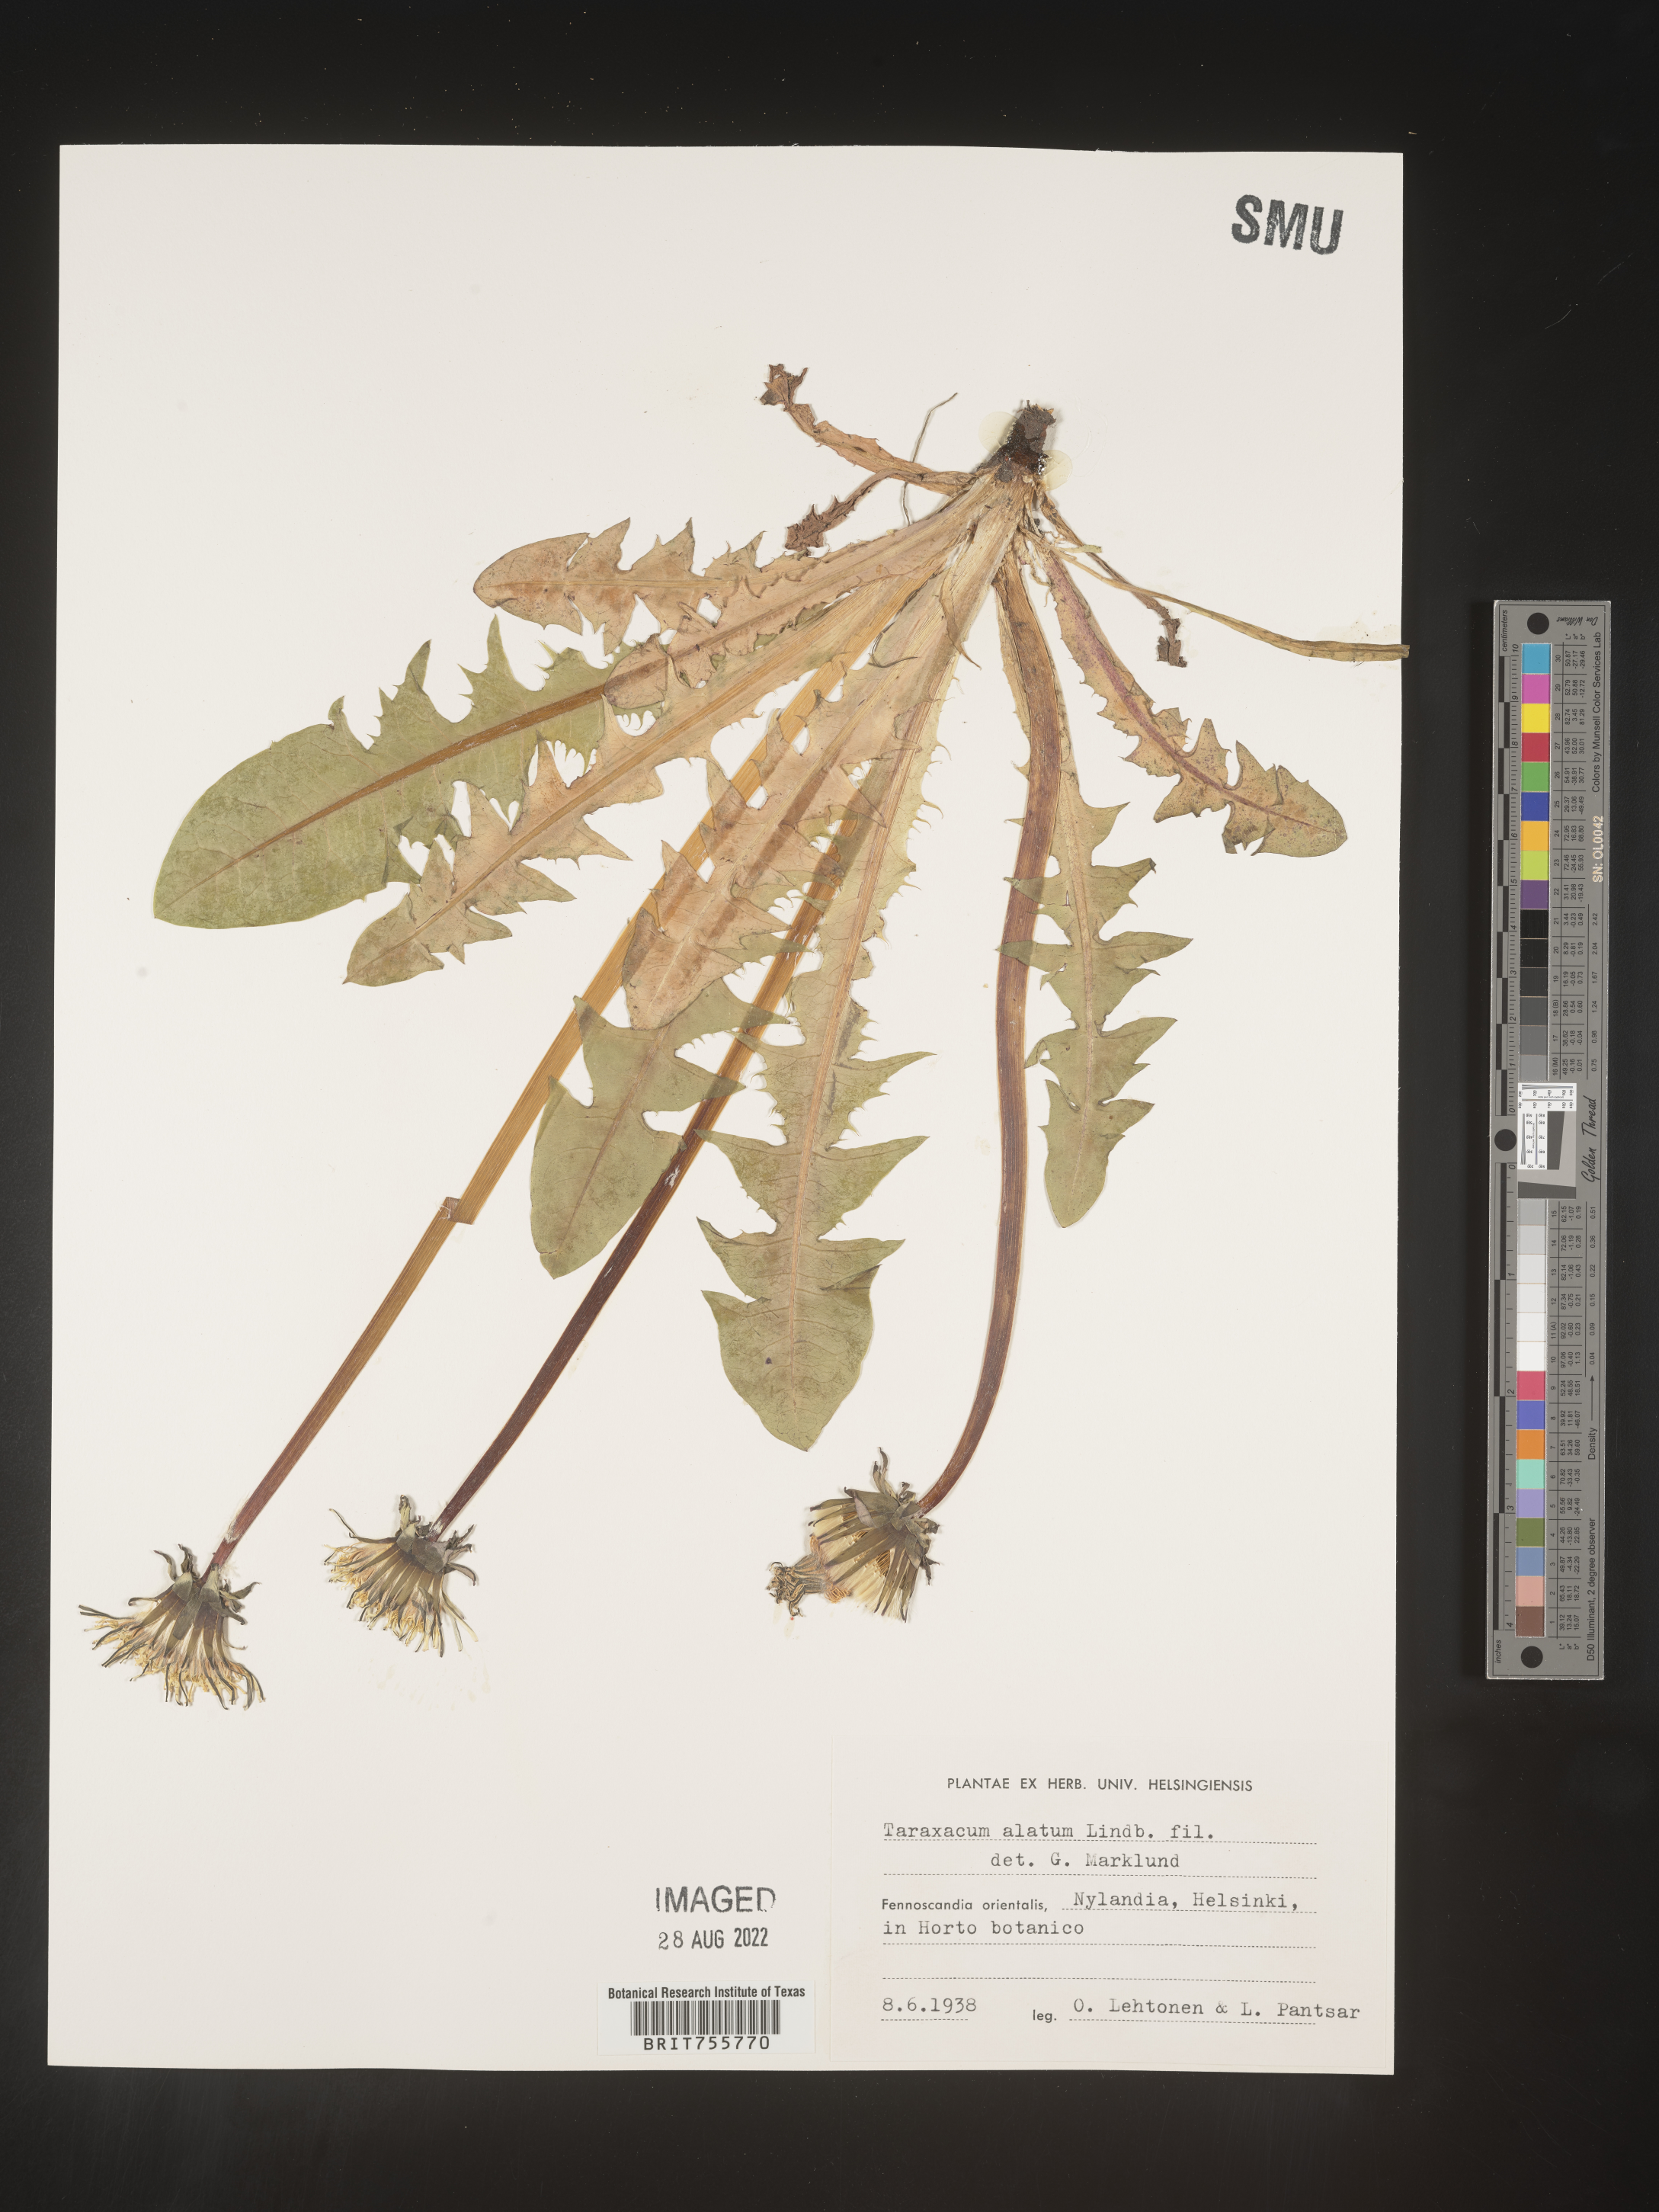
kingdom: Plantae
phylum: Tracheophyta
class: Magnoliopsida
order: Asterales
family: Asteraceae
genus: Taraxacum
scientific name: Taraxacum
